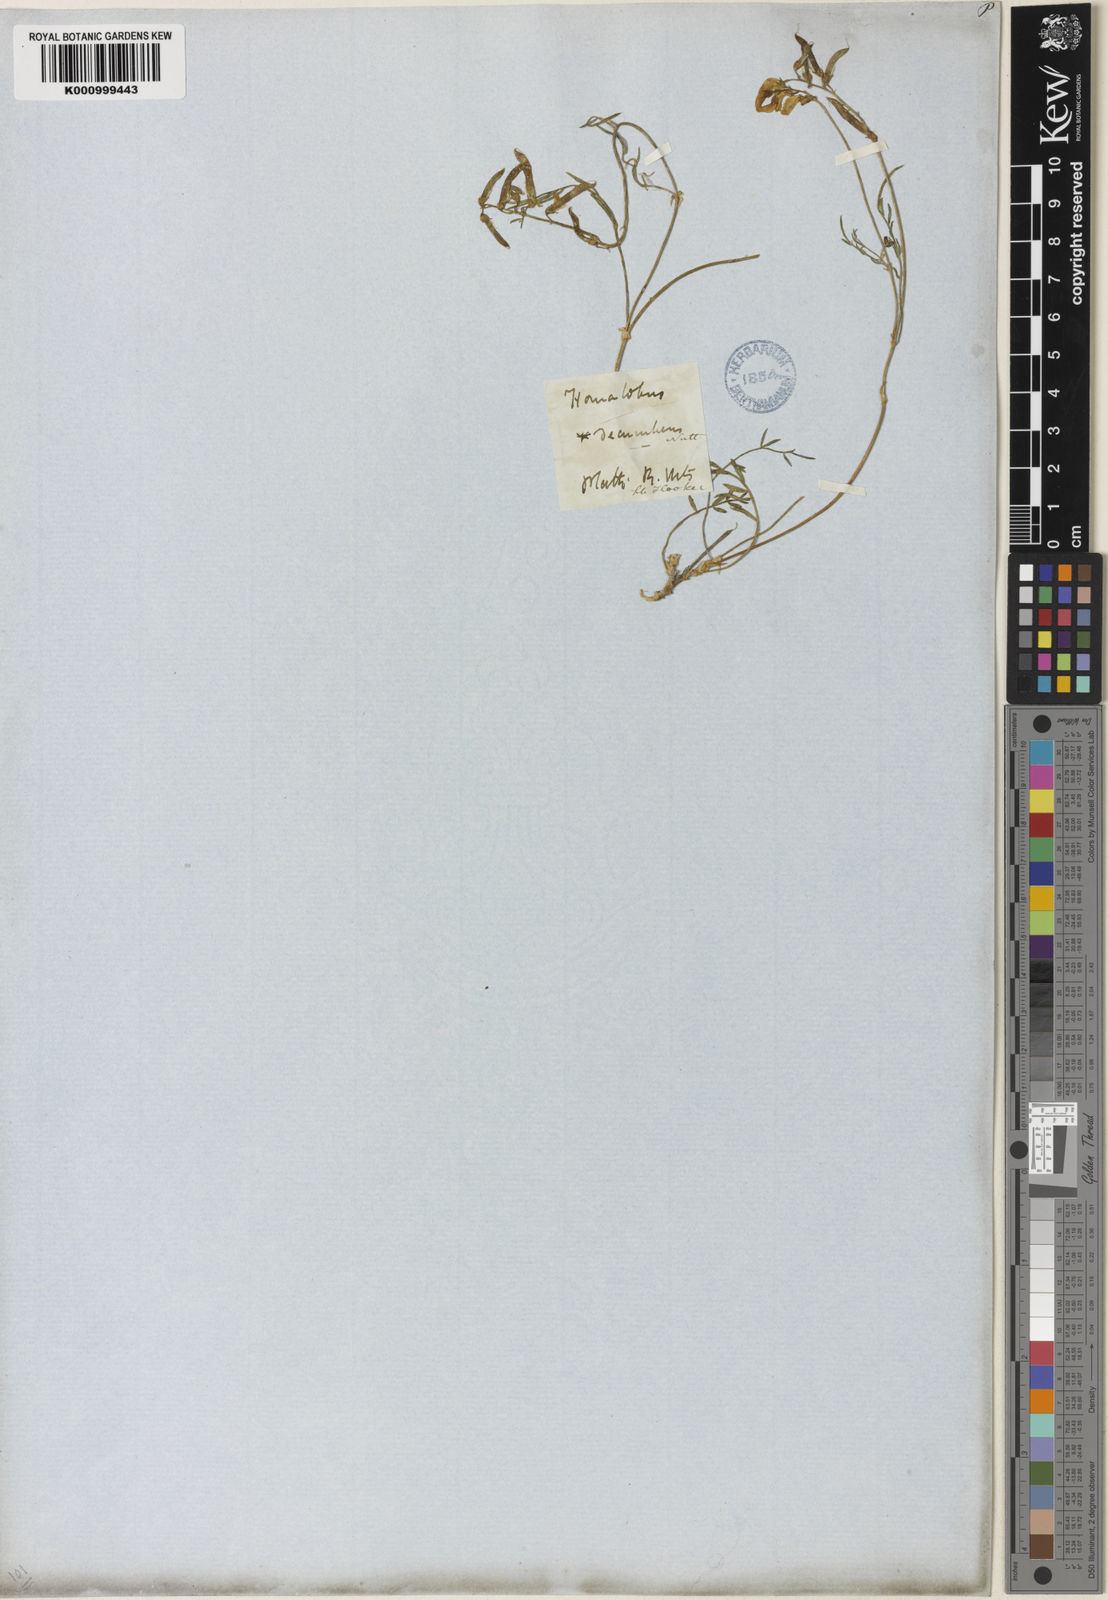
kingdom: Plantae
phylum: Tracheophyta
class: Magnoliopsida
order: Fabales
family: Fabaceae
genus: Astragalus
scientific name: Astragalus miser
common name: Timber milkvetch
